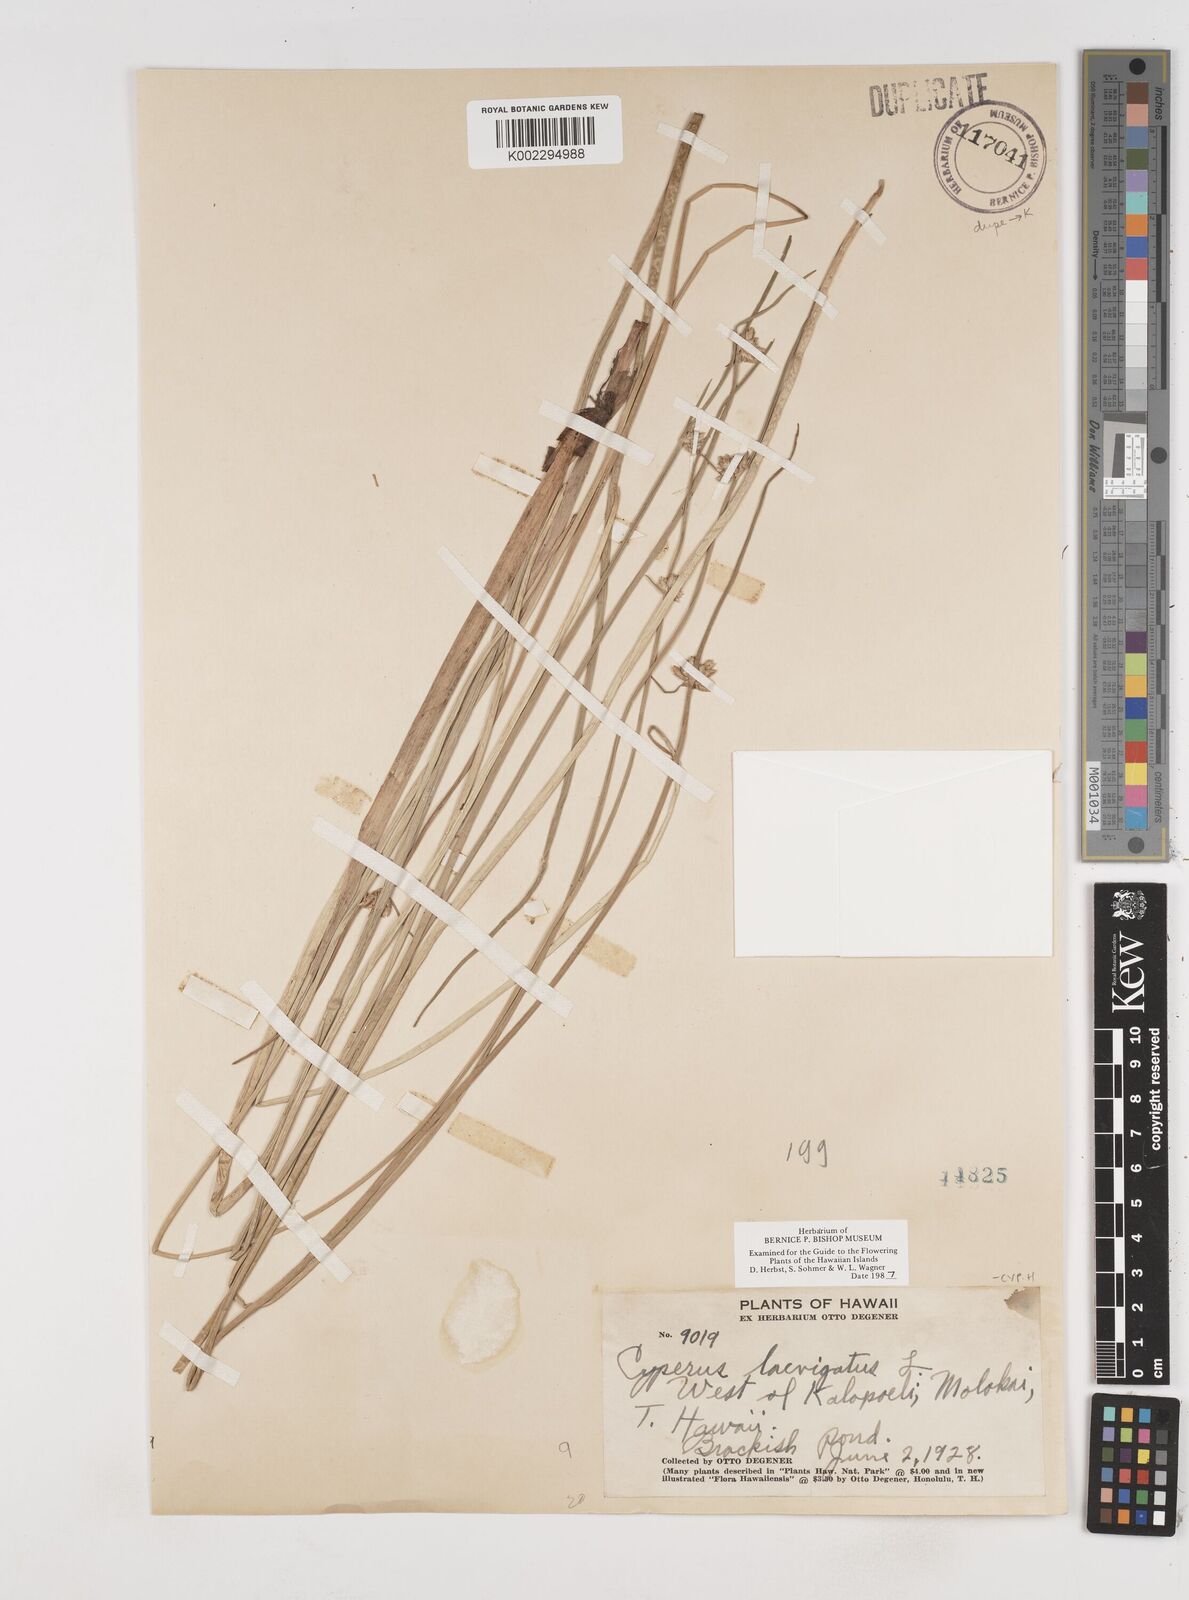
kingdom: Plantae
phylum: Tracheophyta
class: Liliopsida
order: Poales
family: Cyperaceae
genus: Cyperus
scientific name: Cyperus laevigatus
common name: Smooth flat sedge
